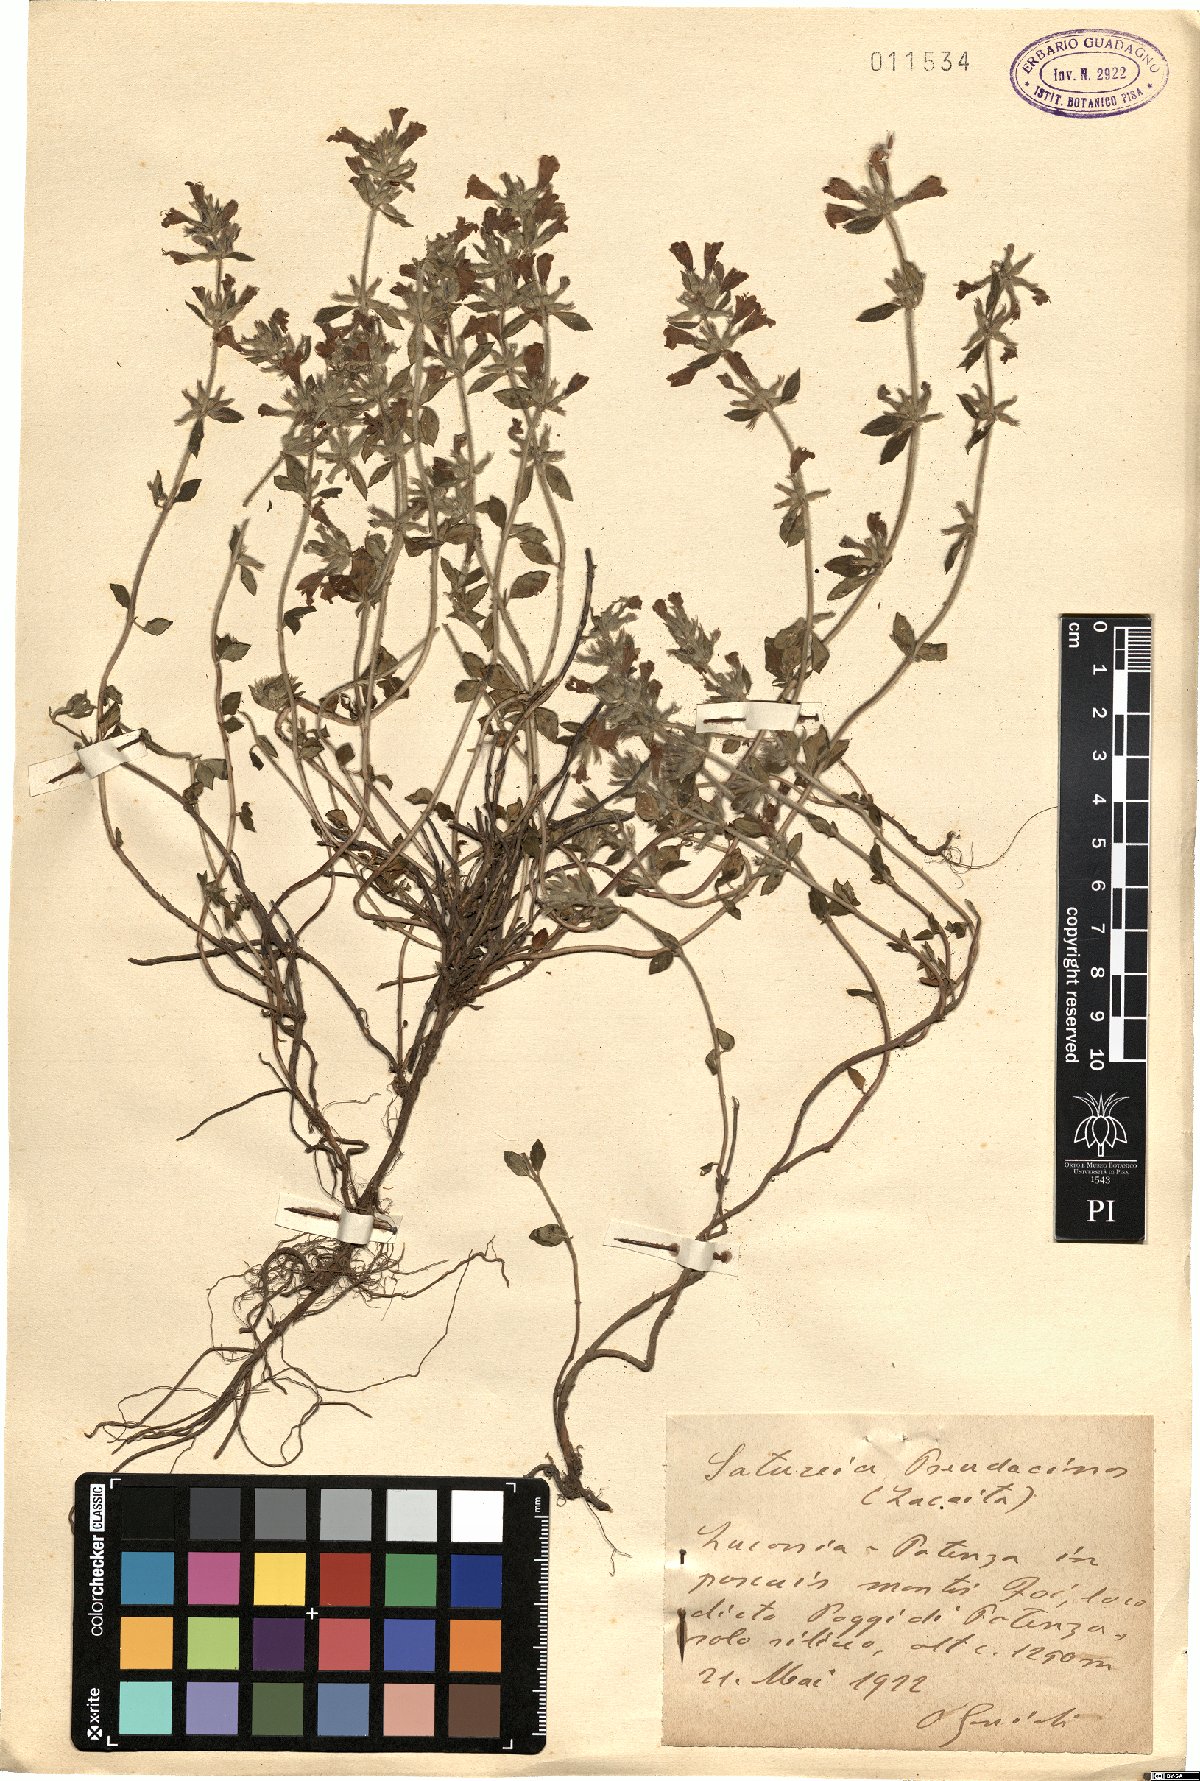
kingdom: Plantae
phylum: Tracheophyta
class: Magnoliopsida
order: Lamiales
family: Lamiaceae
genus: Satureja
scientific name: Satureja
